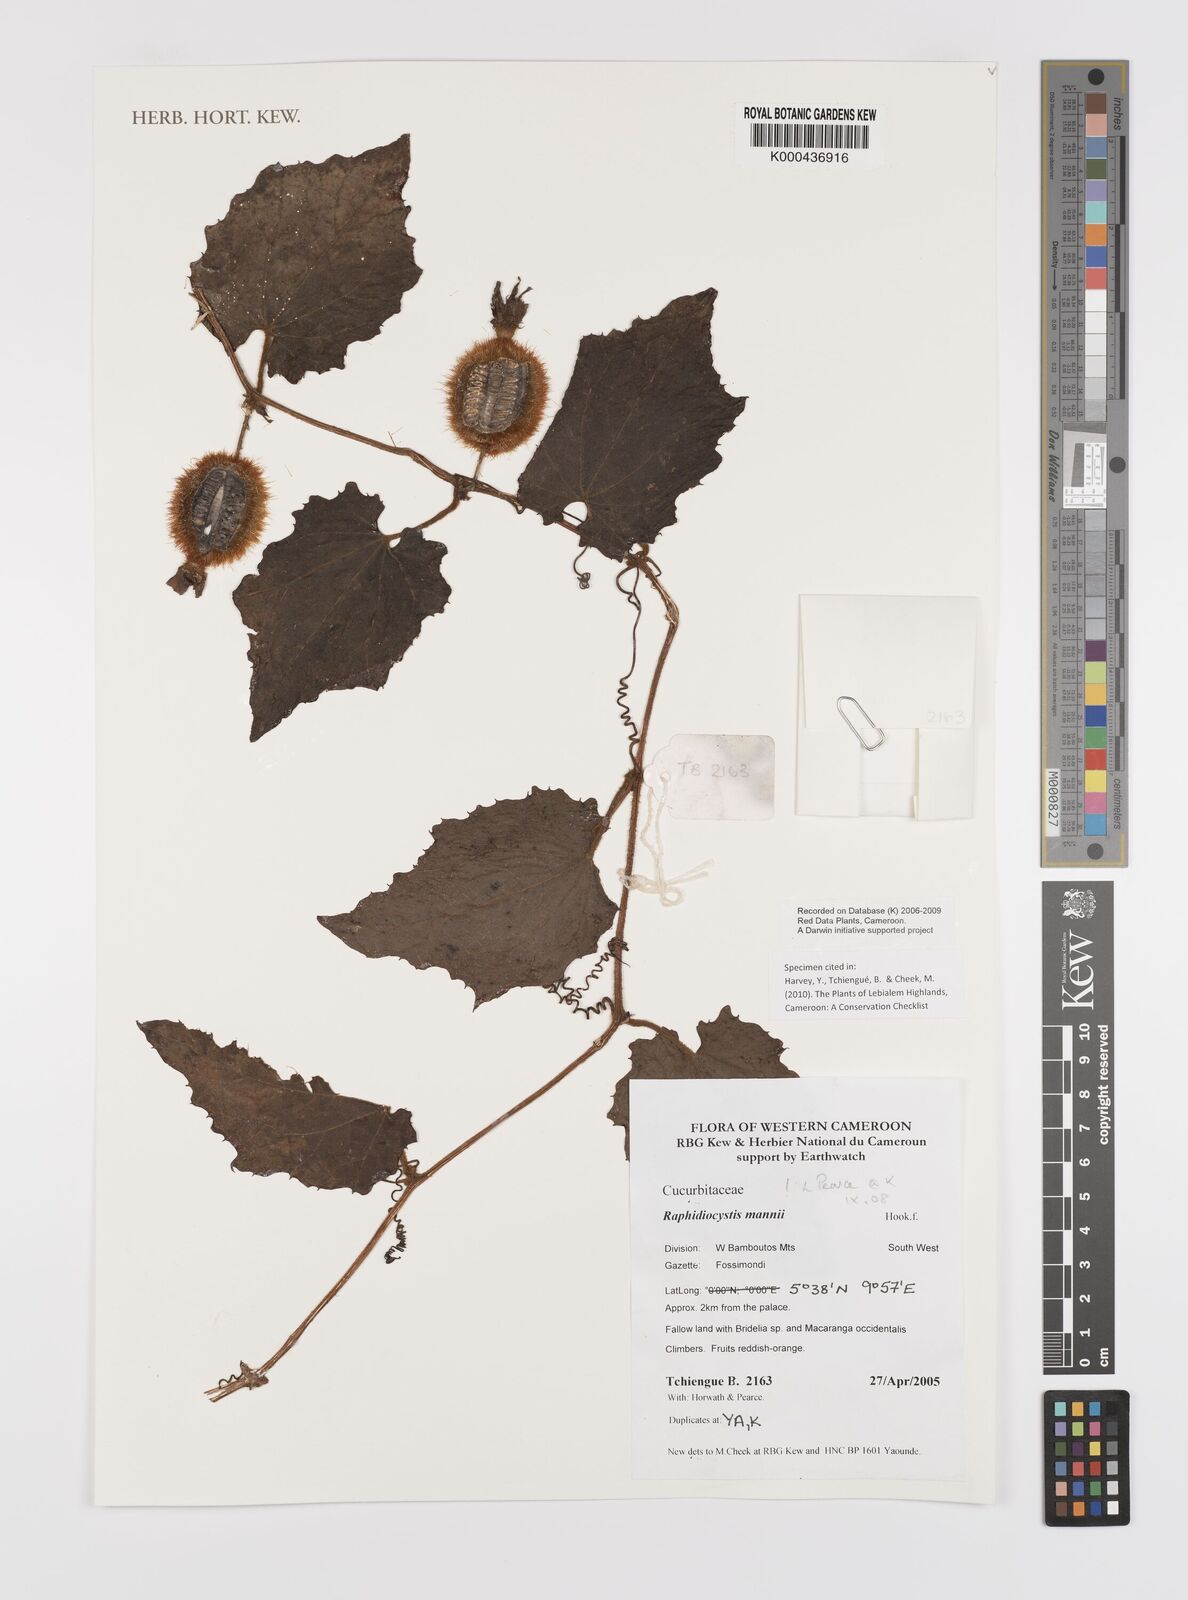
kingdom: Plantae
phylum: Tracheophyta
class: Magnoliopsida
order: Cucurbitales
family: Cucurbitaceae
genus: Raphidiocystis
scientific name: Raphidiocystis mannii
